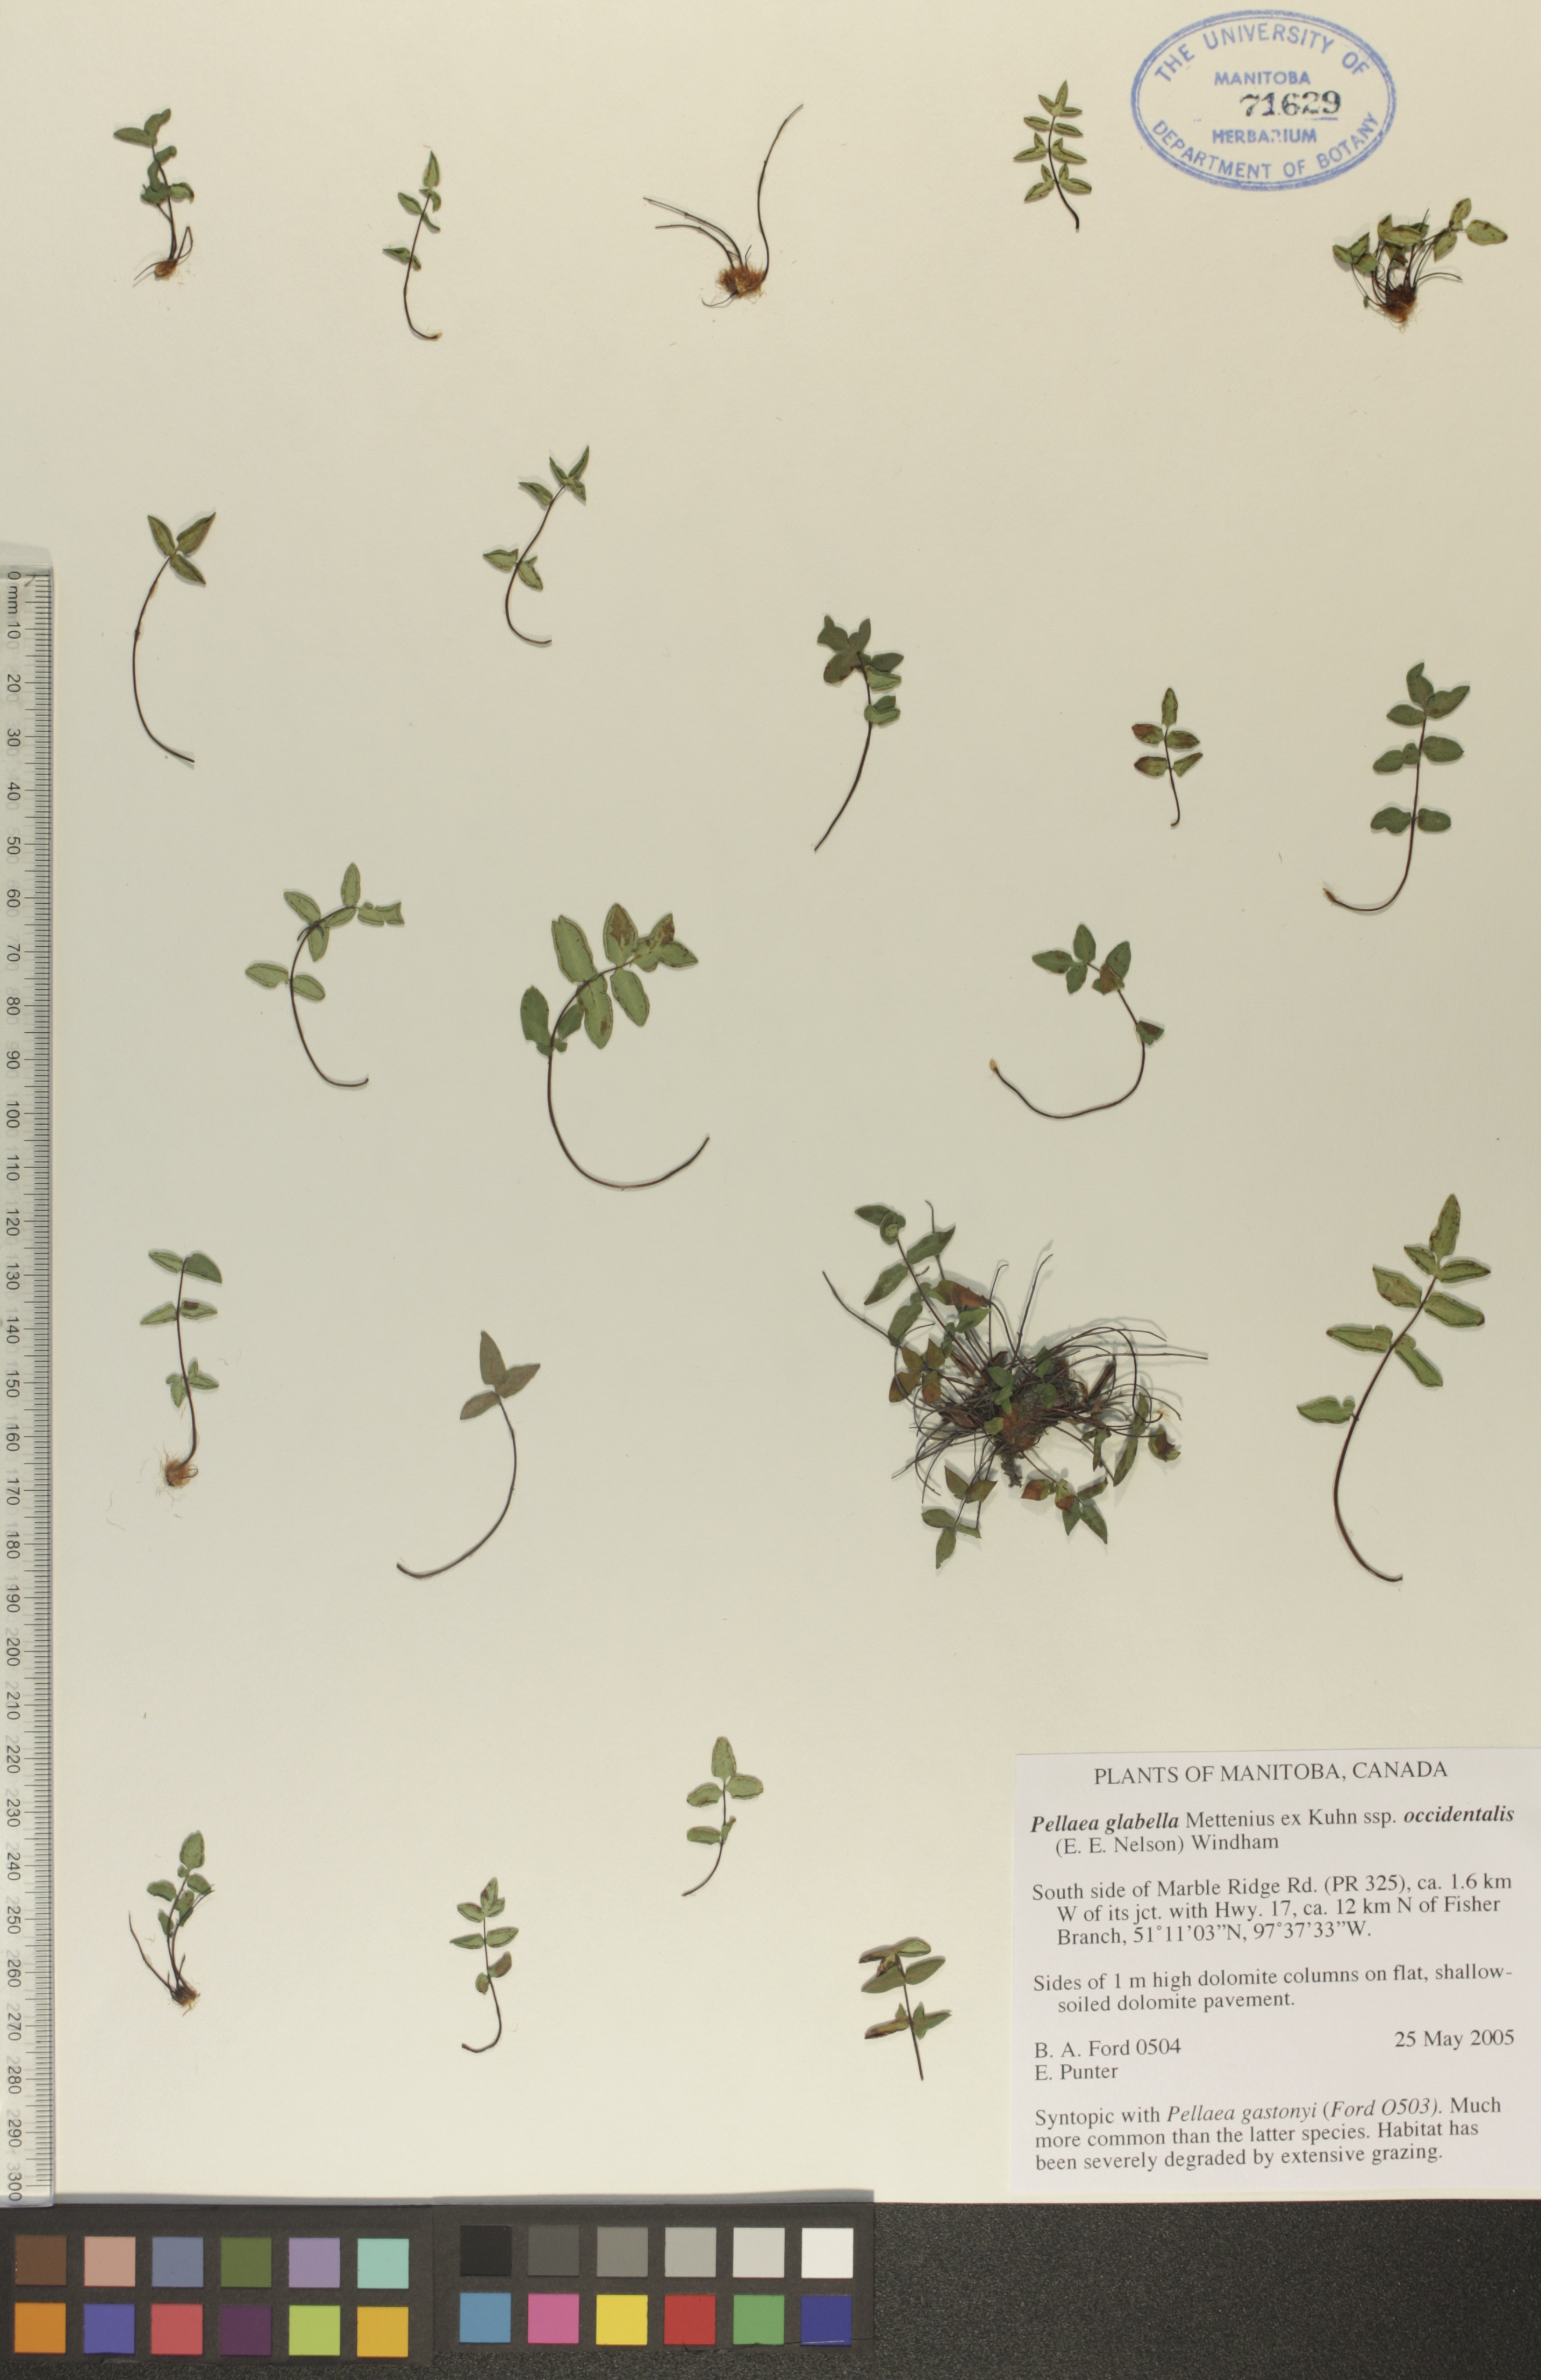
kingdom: Plantae
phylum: Tracheophyta
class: Polypodiopsida
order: Polypodiales
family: Pteridaceae
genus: Pellaea
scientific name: Pellaea glabella
